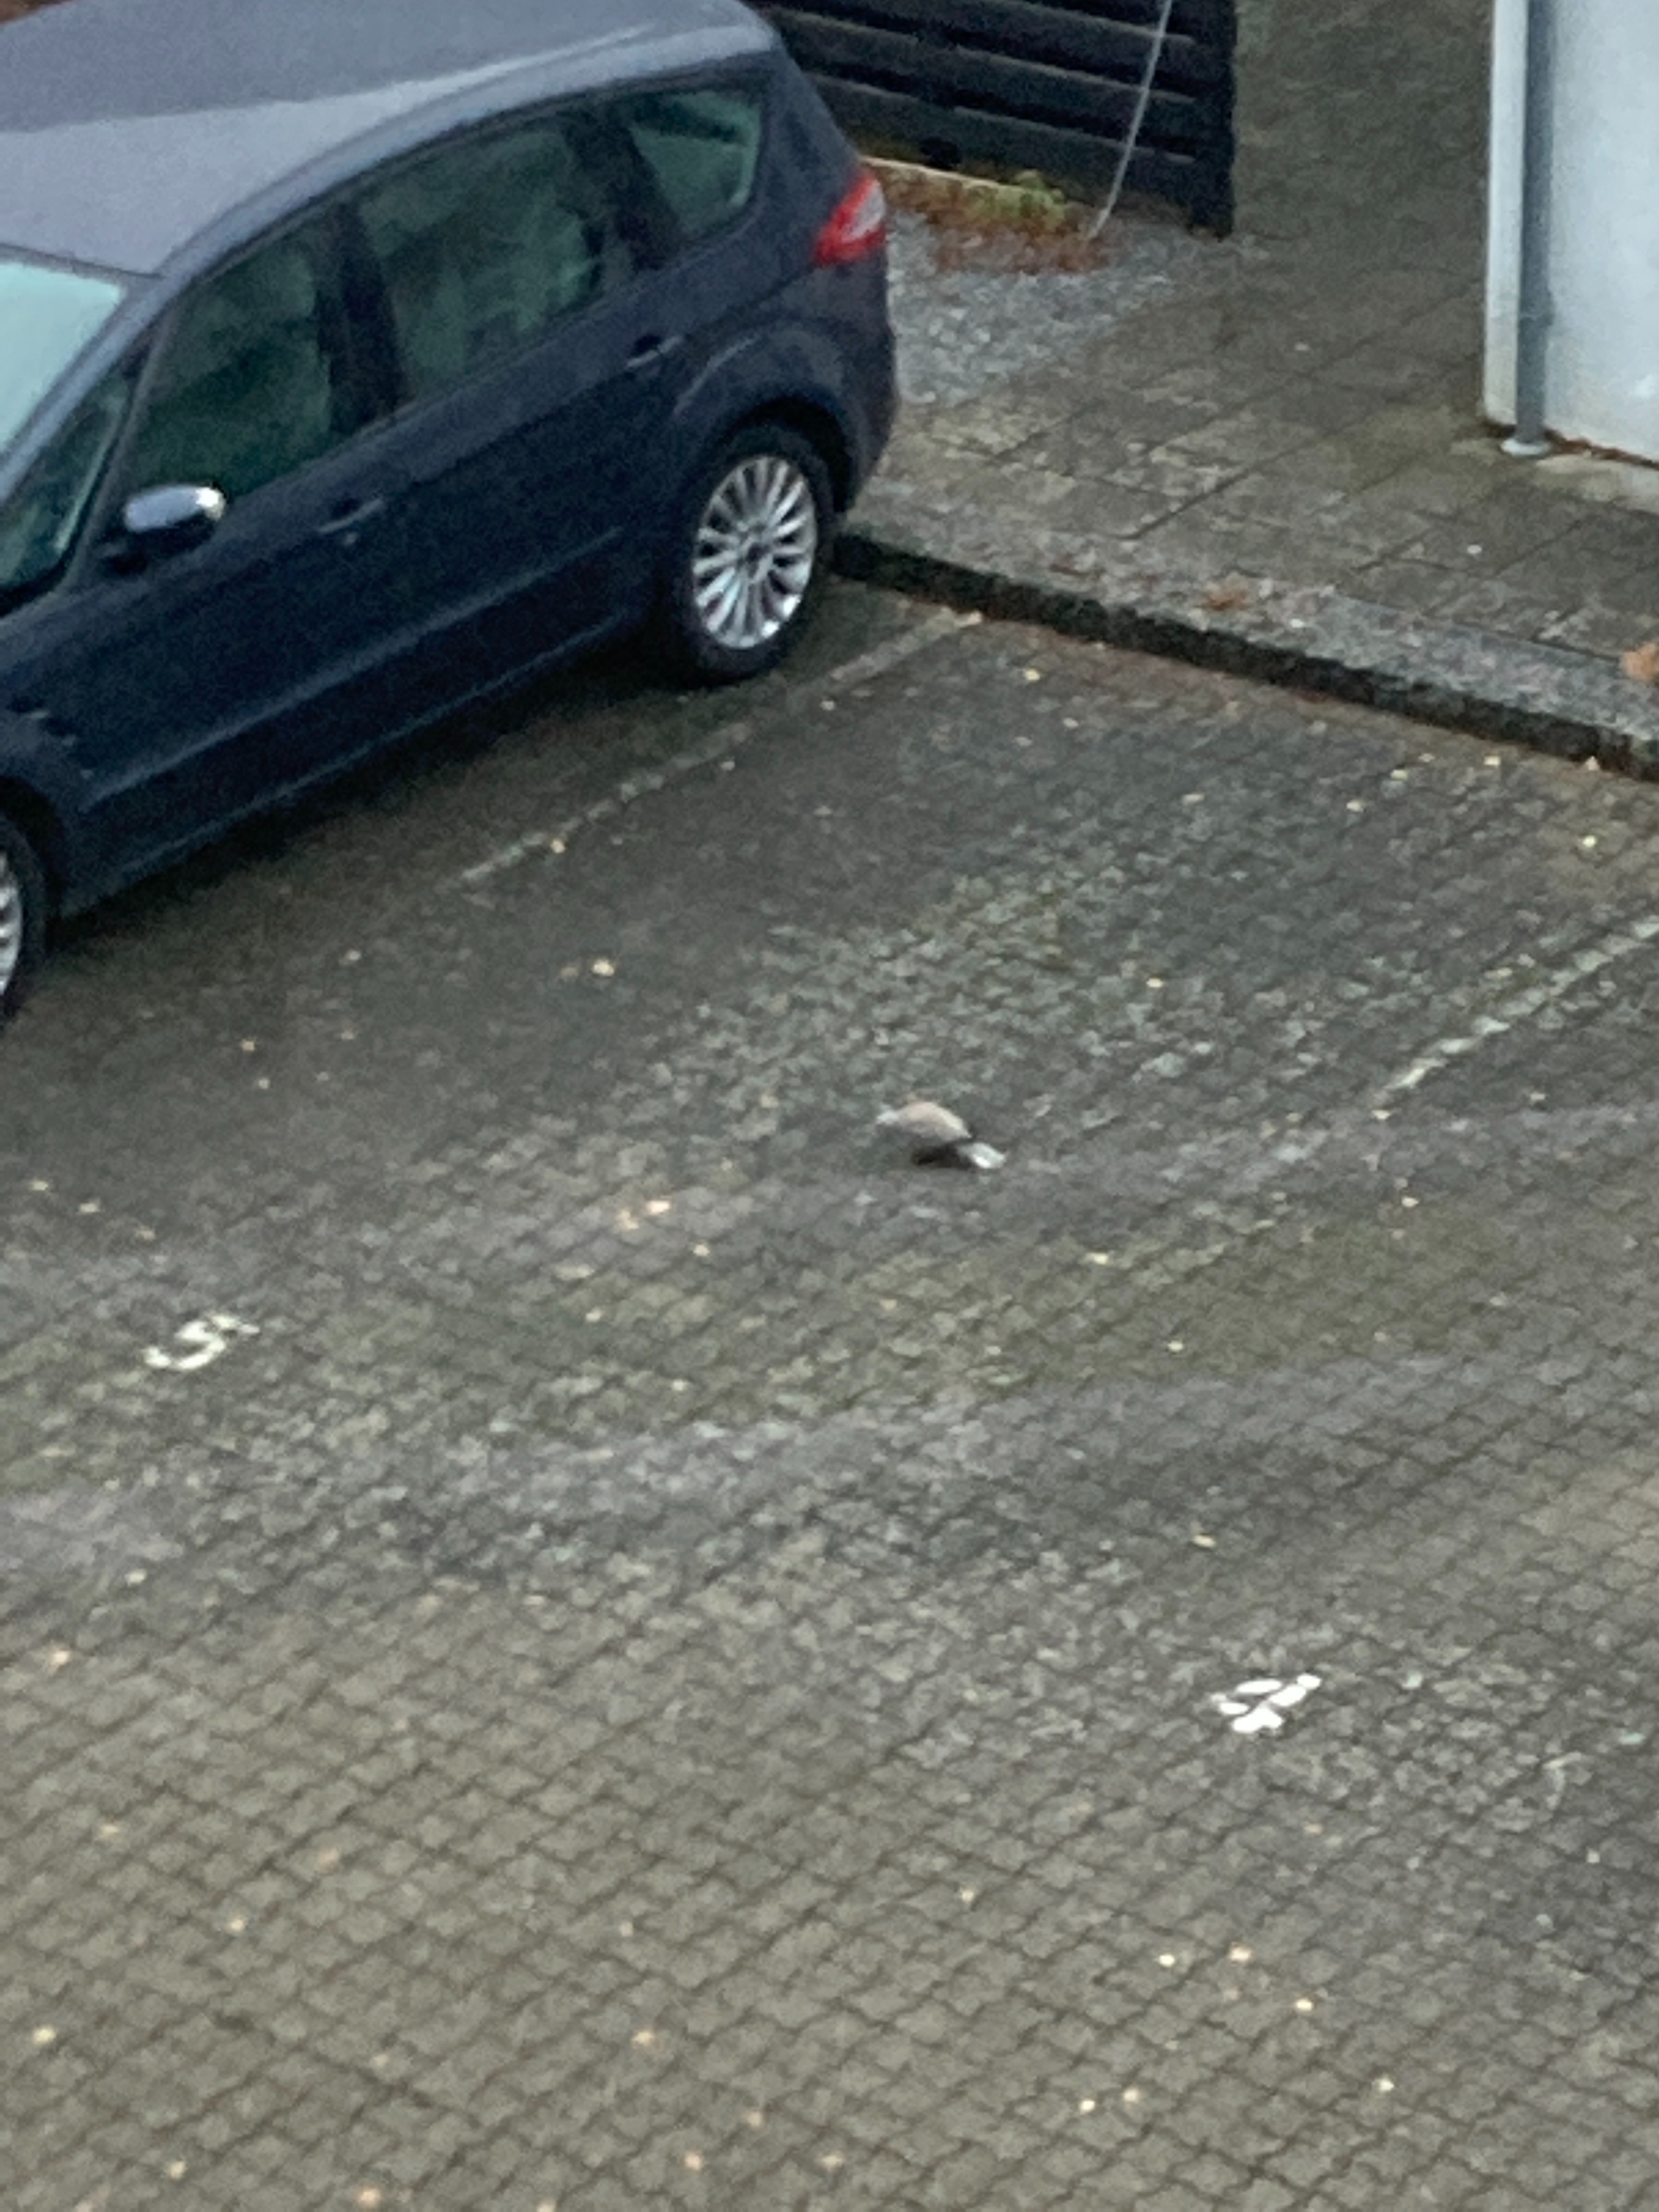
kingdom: Animalia
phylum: Chordata
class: Aves
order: Columbiformes
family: Columbidae
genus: Streptopelia
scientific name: Streptopelia decaocto
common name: Tyrkerdue
